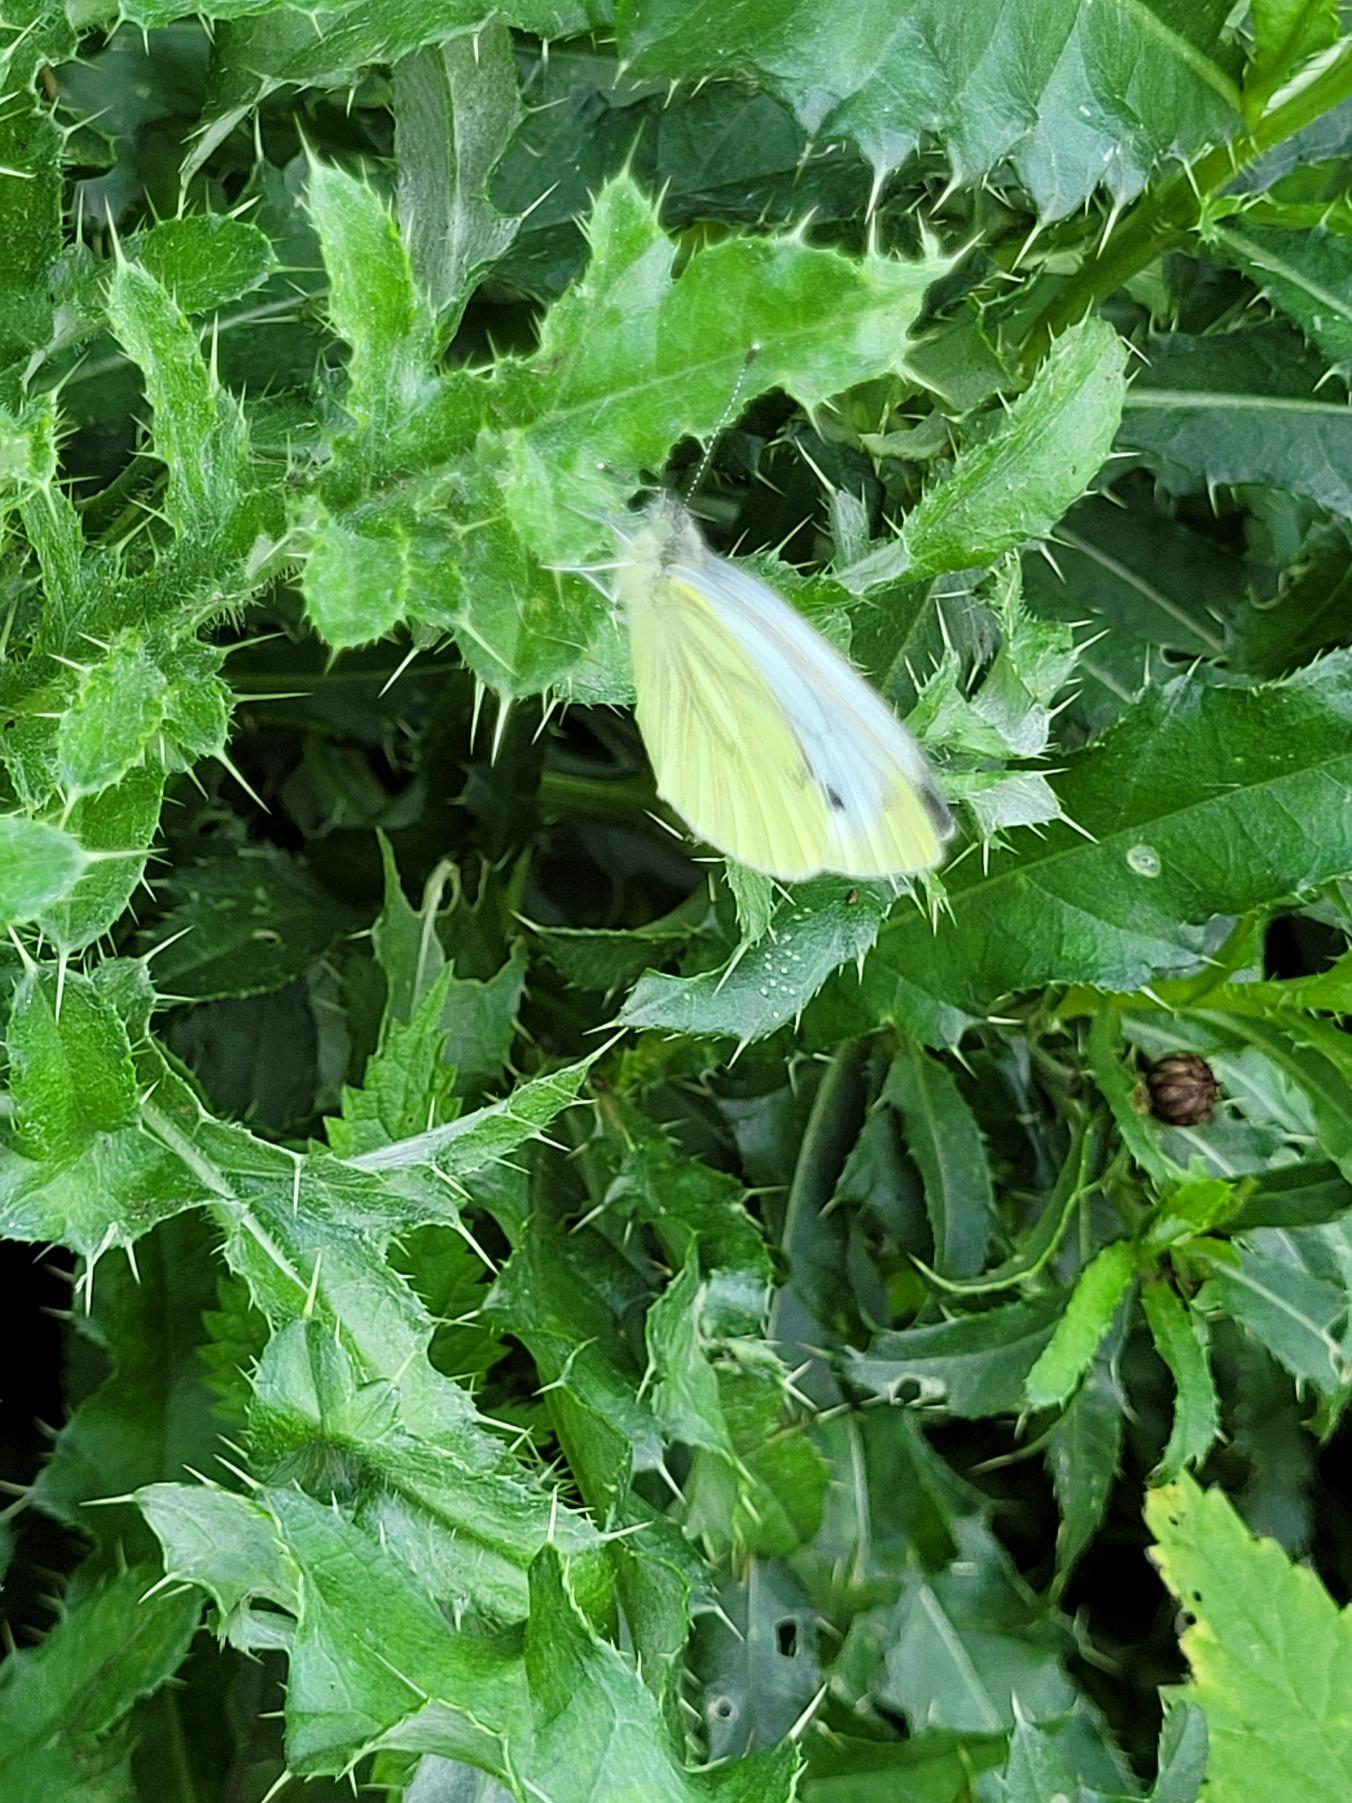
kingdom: Animalia
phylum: Arthropoda
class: Insecta
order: Lepidoptera
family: Pieridae
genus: Pieris
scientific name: Pieris napi
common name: Grønåret kålsommerfugl
